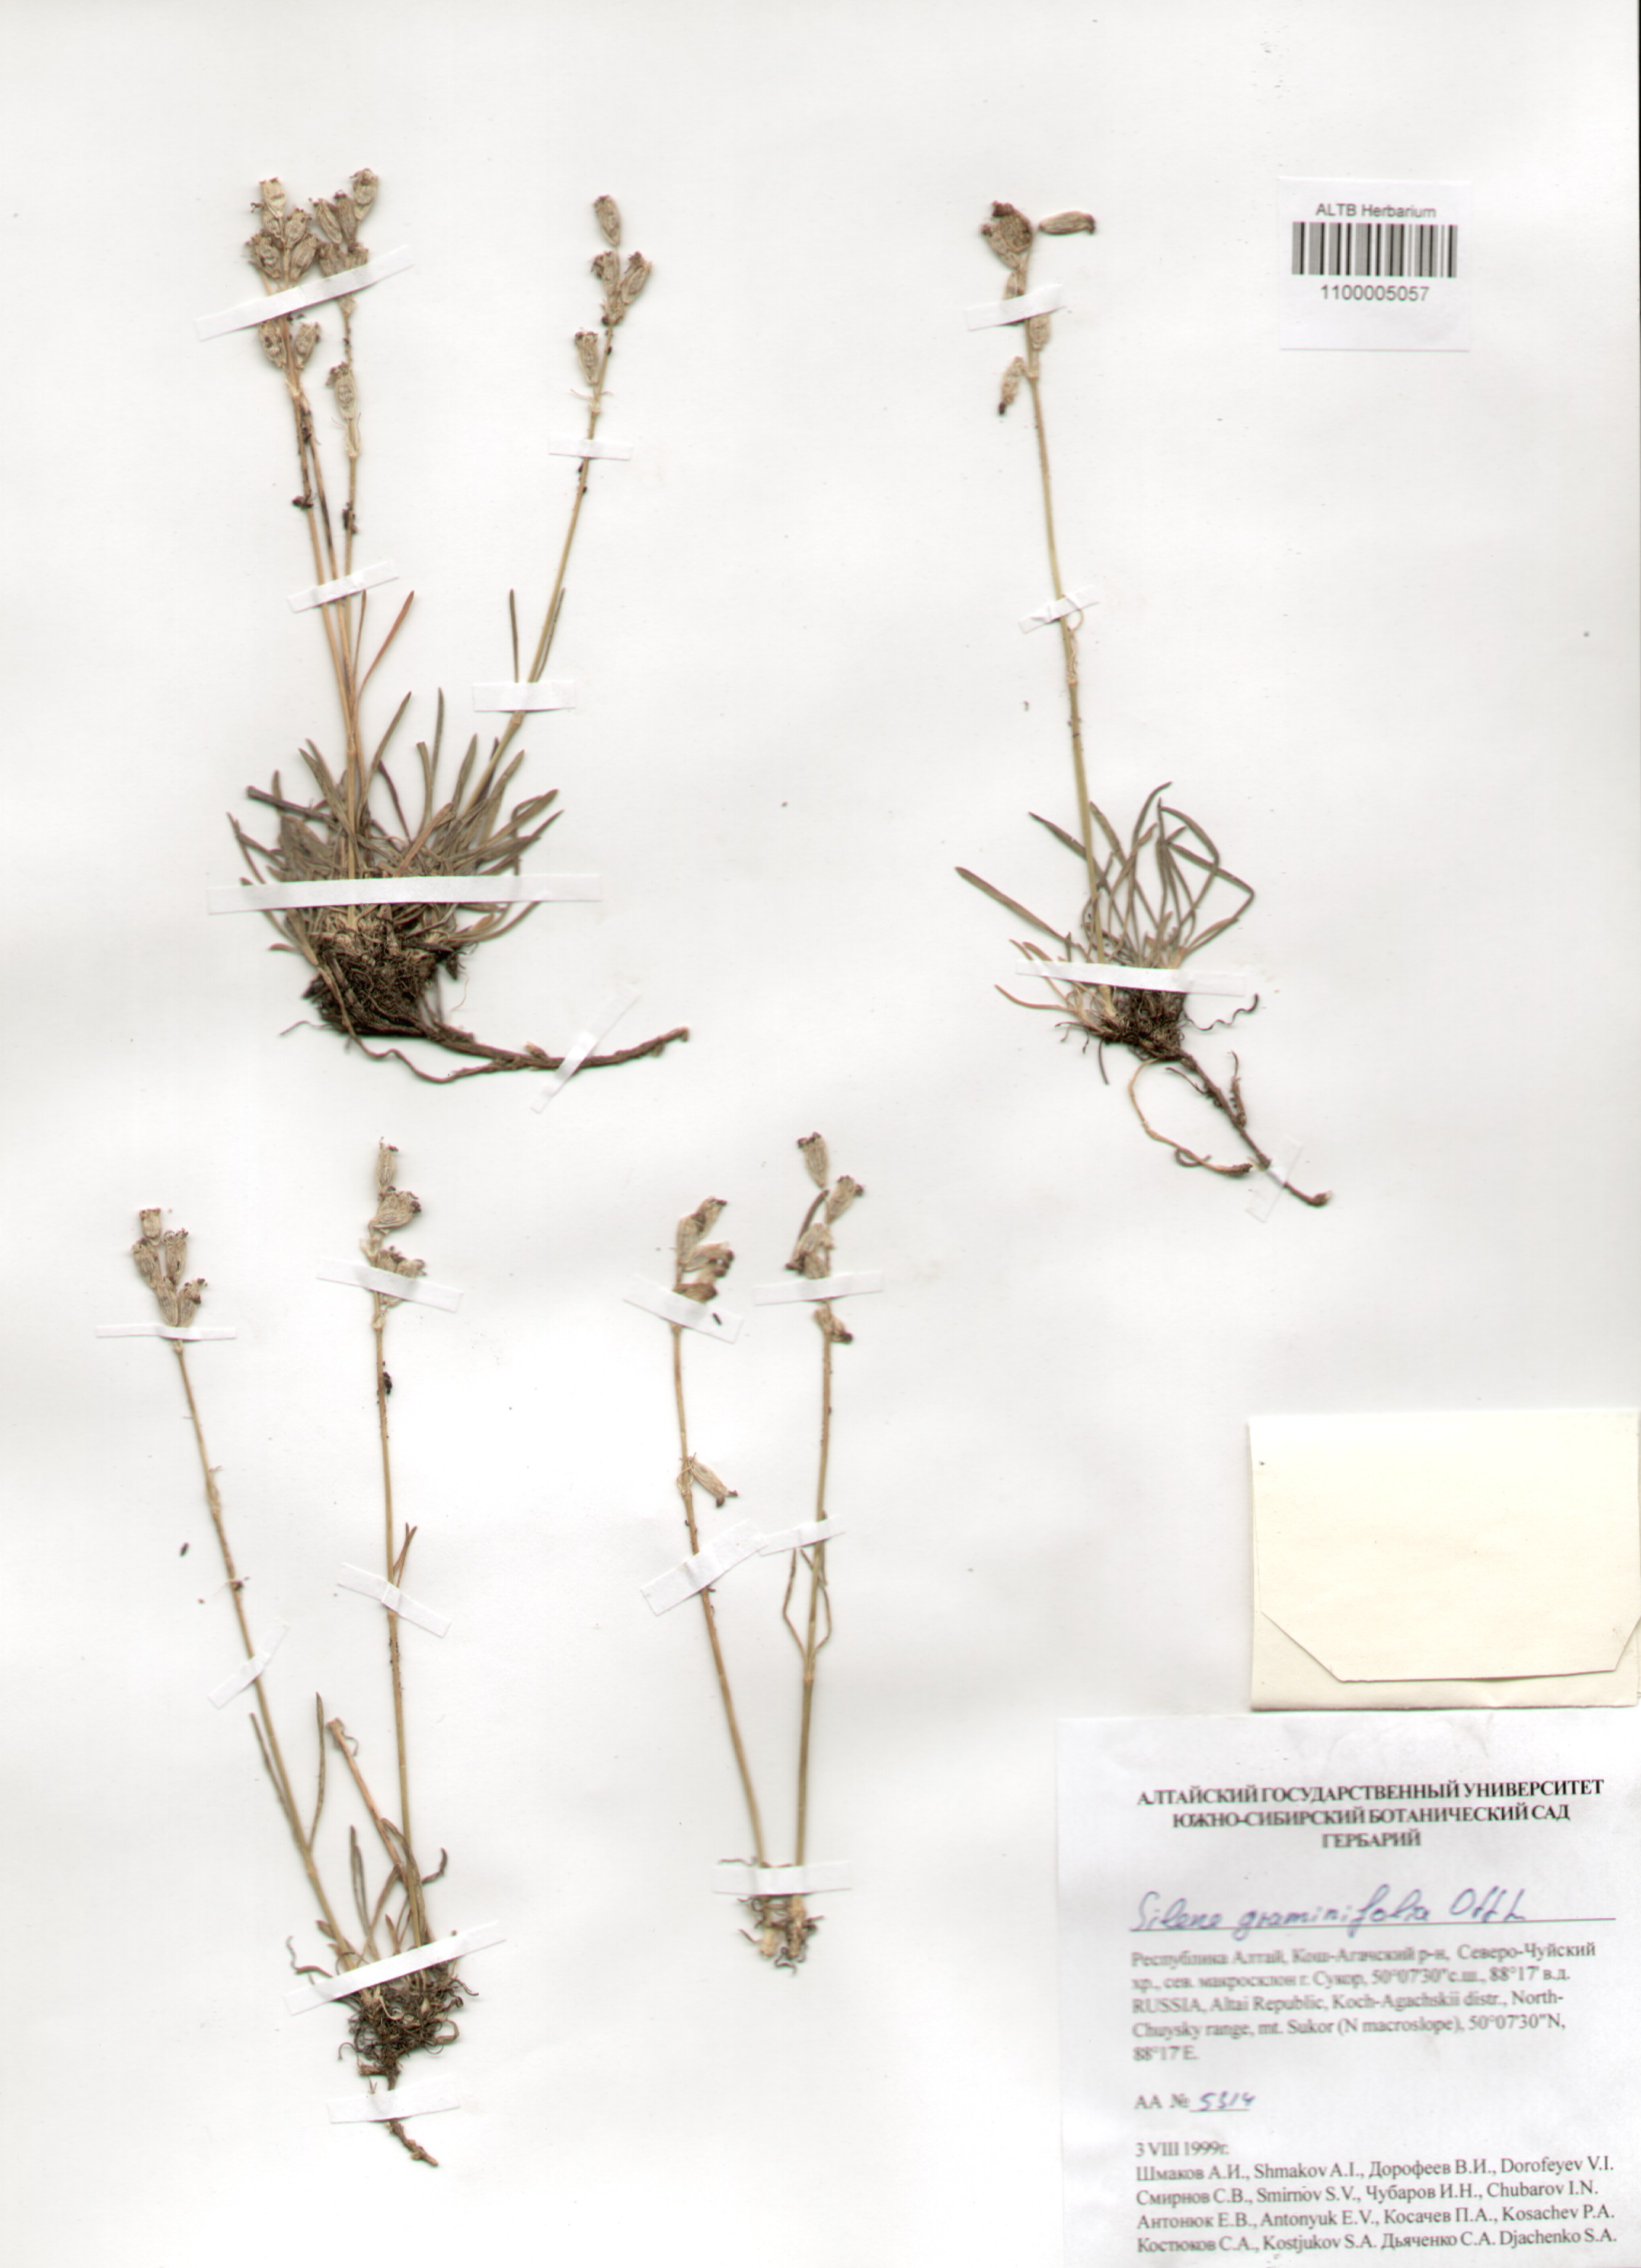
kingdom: Plantae
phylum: Tracheophyta
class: Magnoliopsida
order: Caryophyllales
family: Caryophyllaceae
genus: Silene
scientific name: Silene graminifolia
